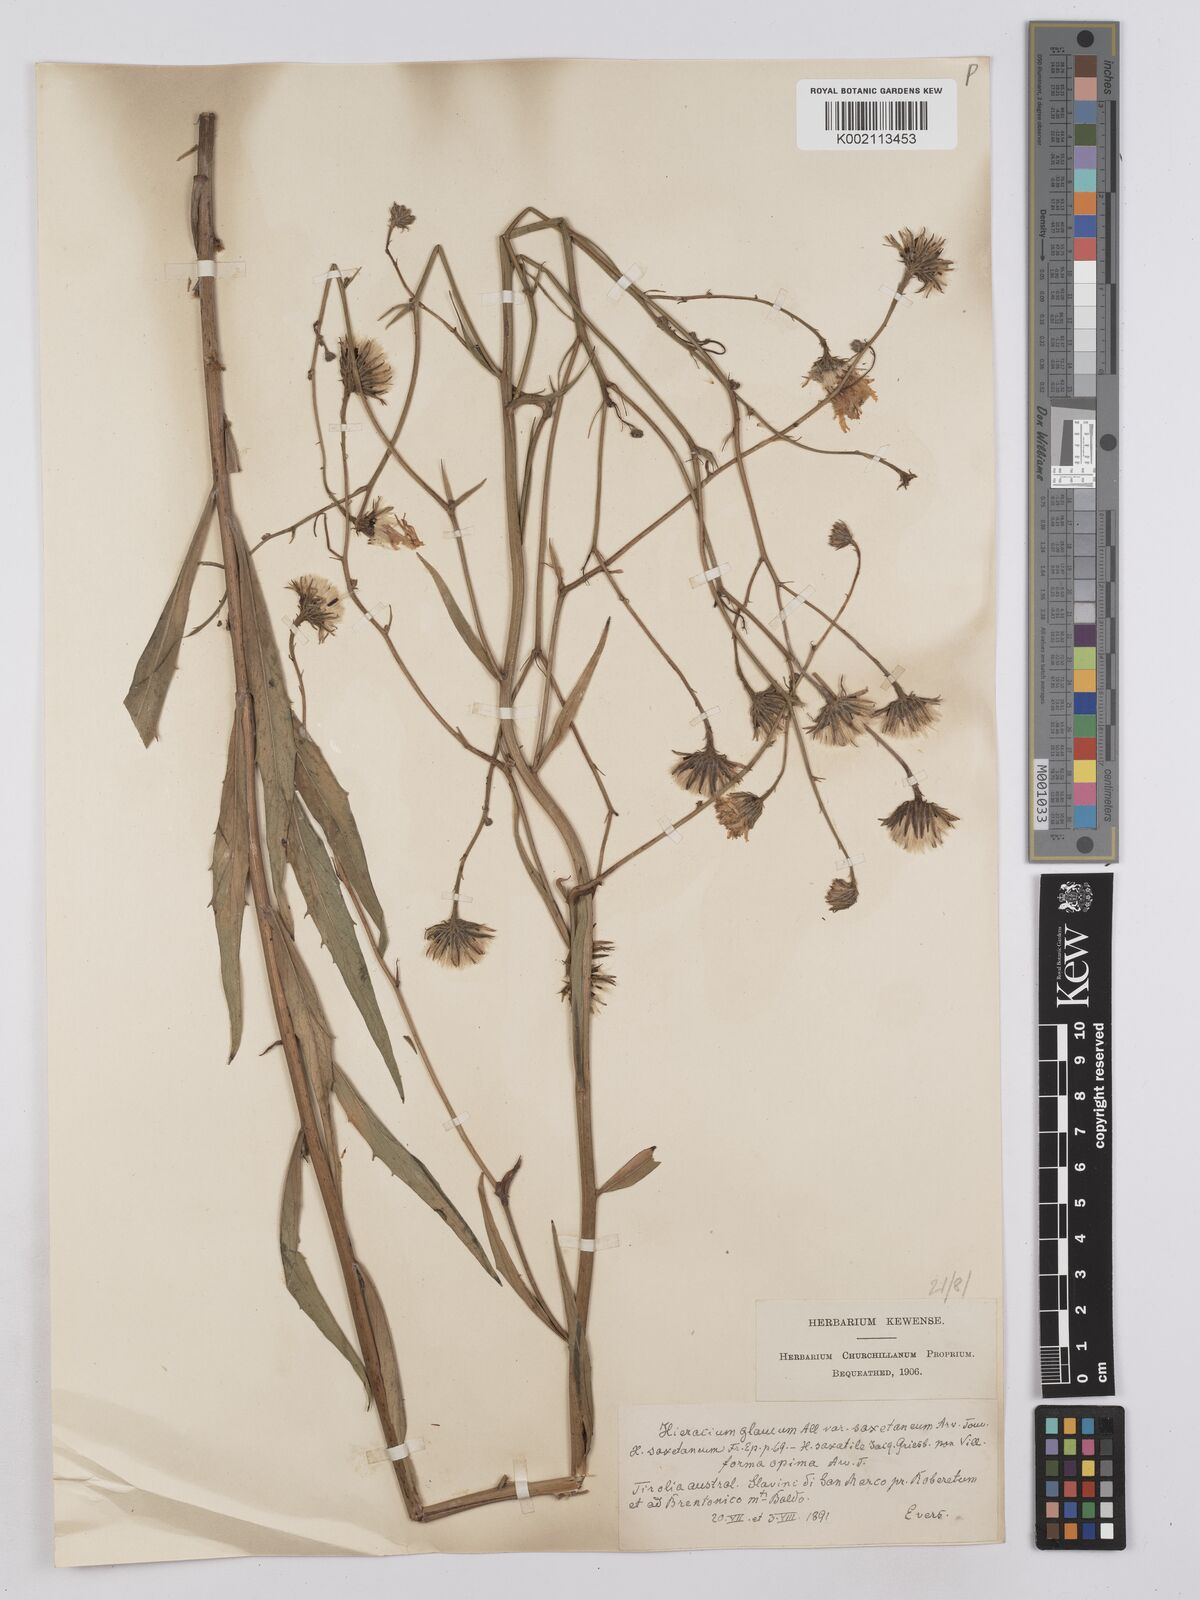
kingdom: Plantae
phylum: Tracheophyta
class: Magnoliopsida
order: Asterales
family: Asteraceae
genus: Hieracium
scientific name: Hieracium calcareum
